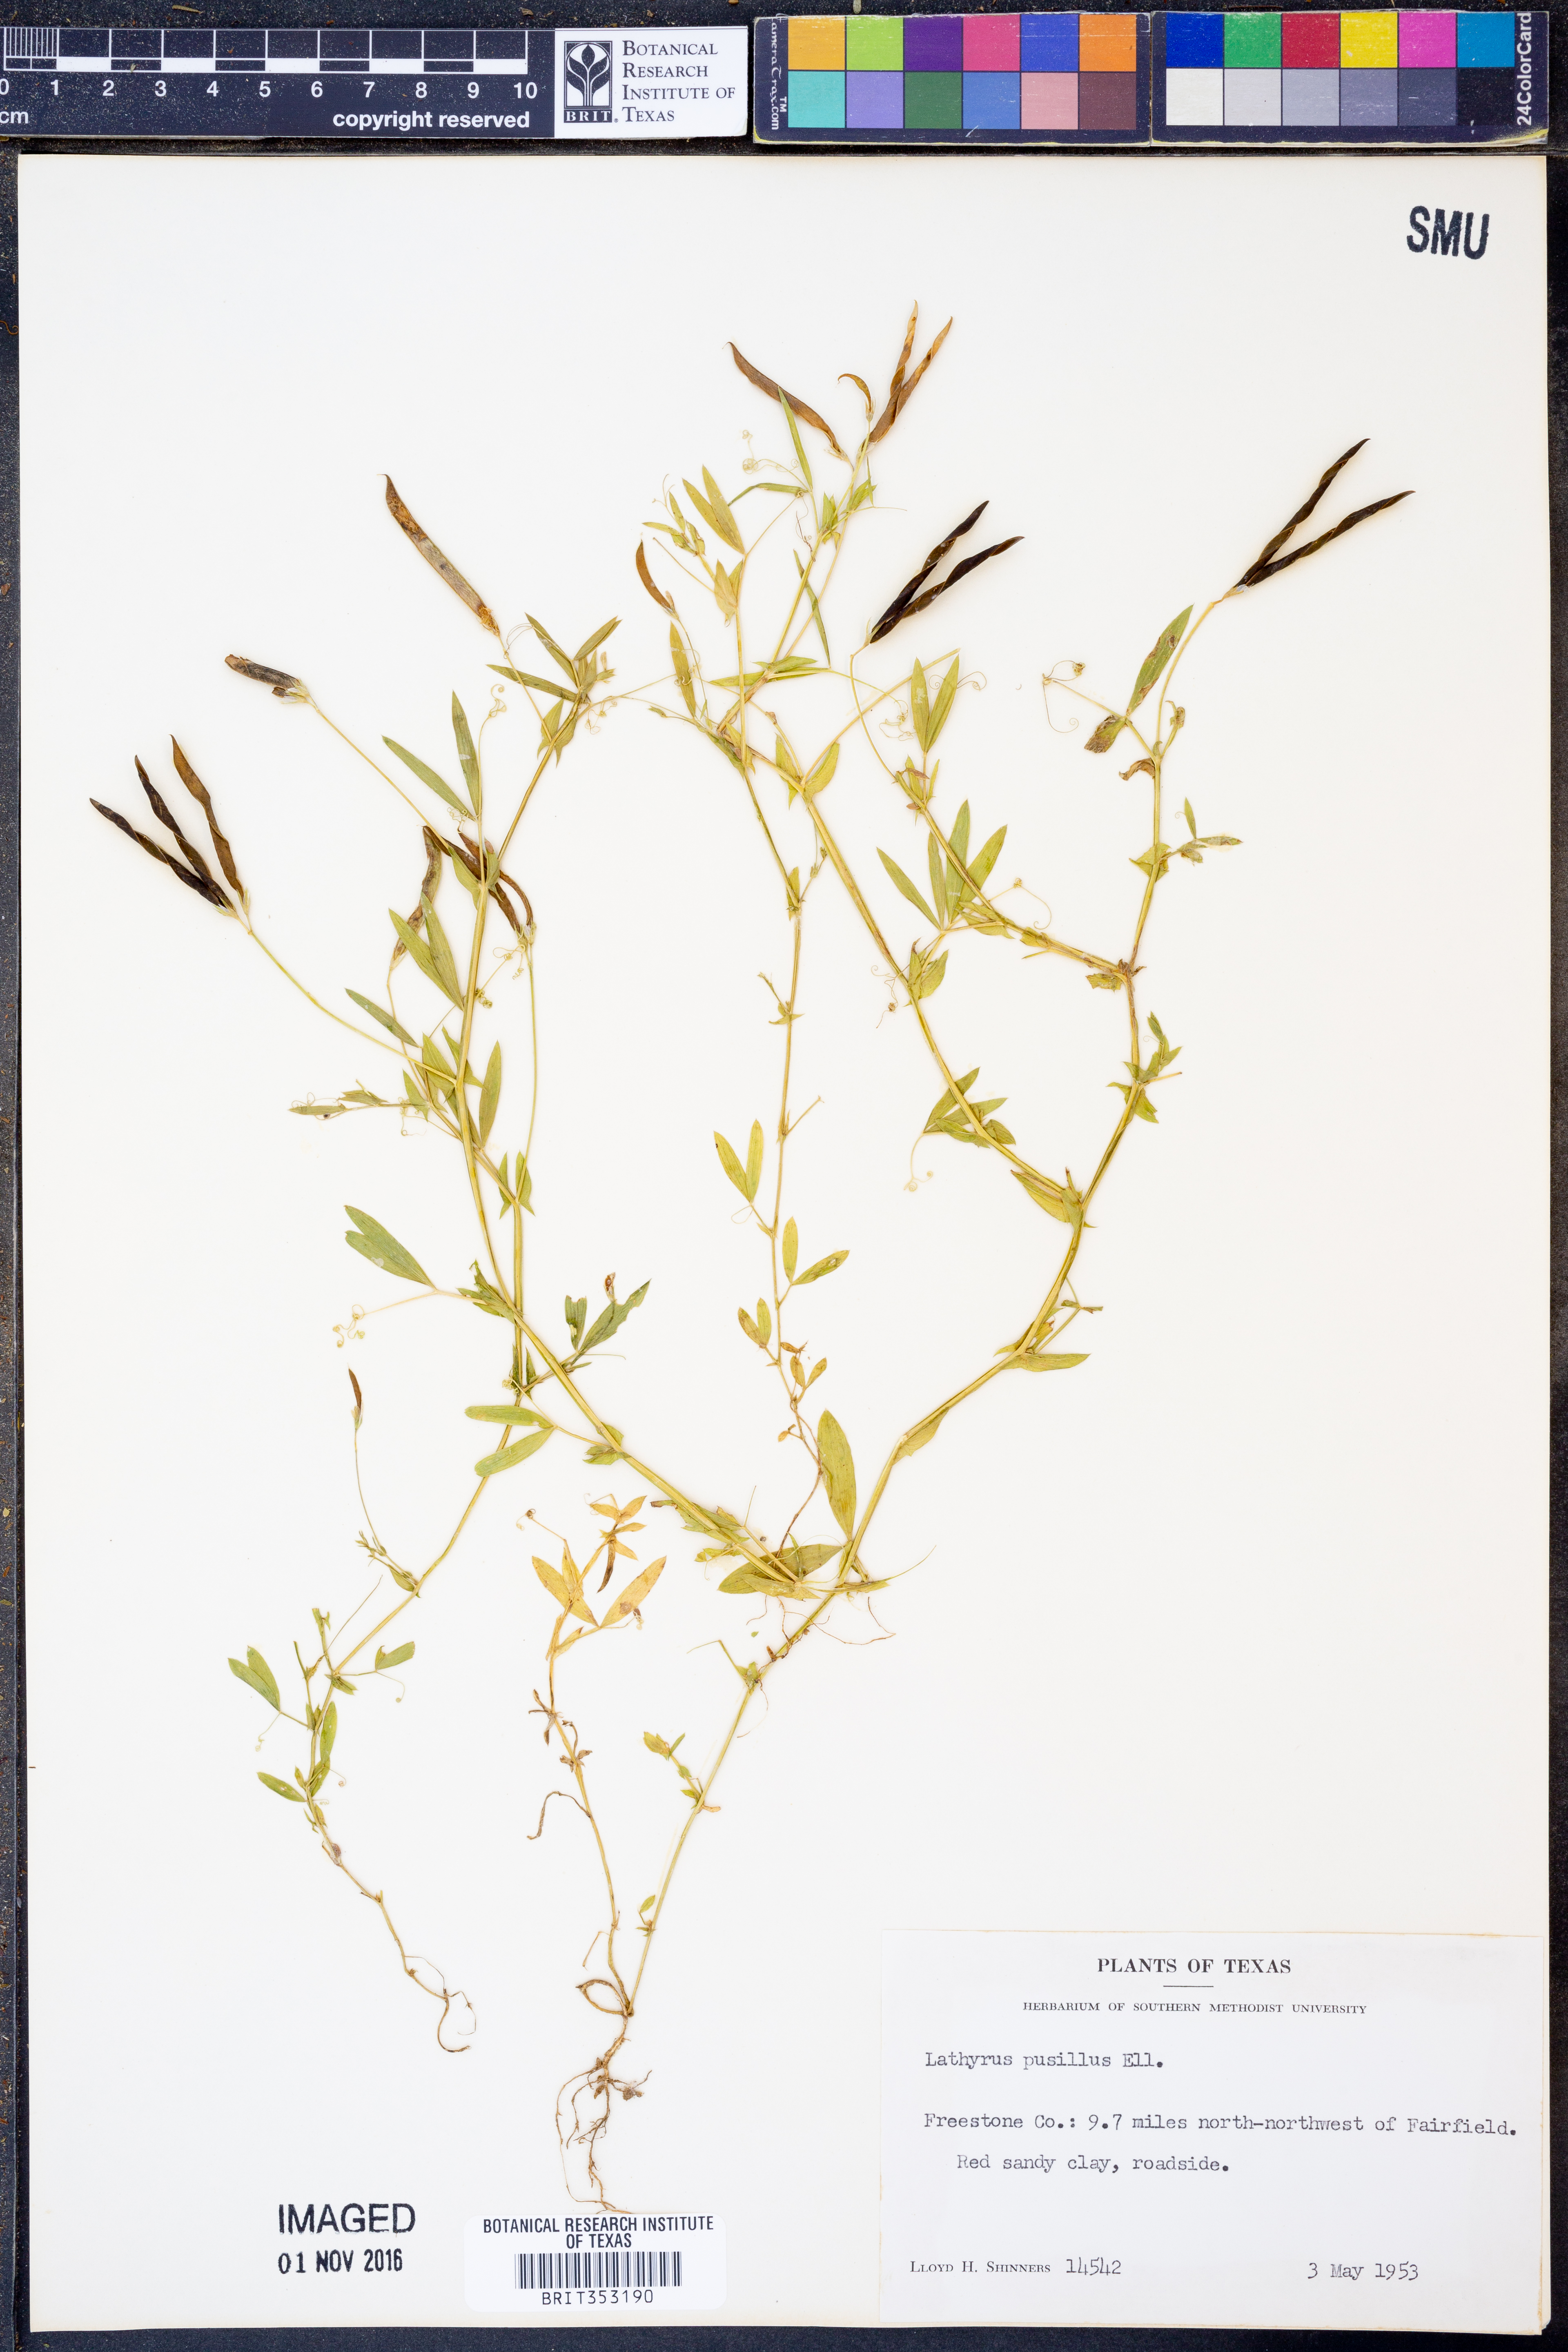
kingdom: Plantae
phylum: Tracheophyta
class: Magnoliopsida
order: Fabales
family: Fabaceae
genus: Lathyrus
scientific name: Lathyrus pusillus
